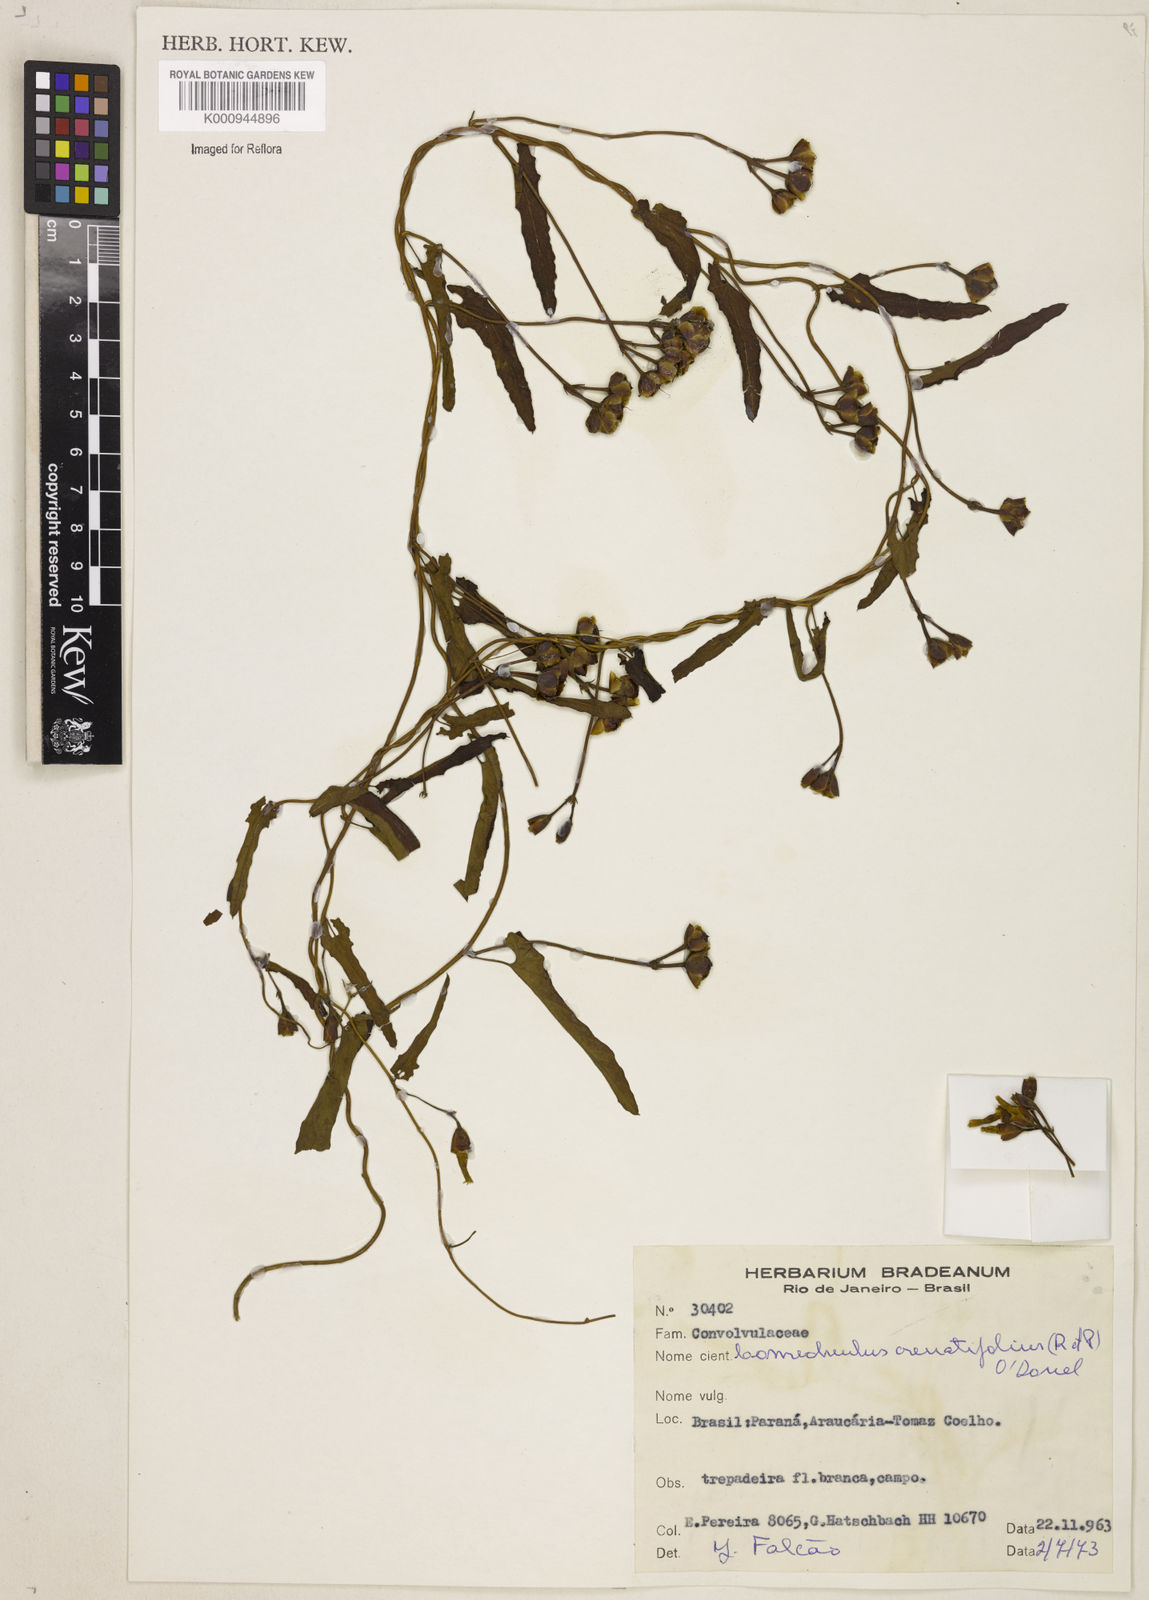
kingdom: Plantae
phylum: Tracheophyta
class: Magnoliopsida
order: Solanales
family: Convolvulaceae
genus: Convolvulus
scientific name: Convolvulus crenatifolius
